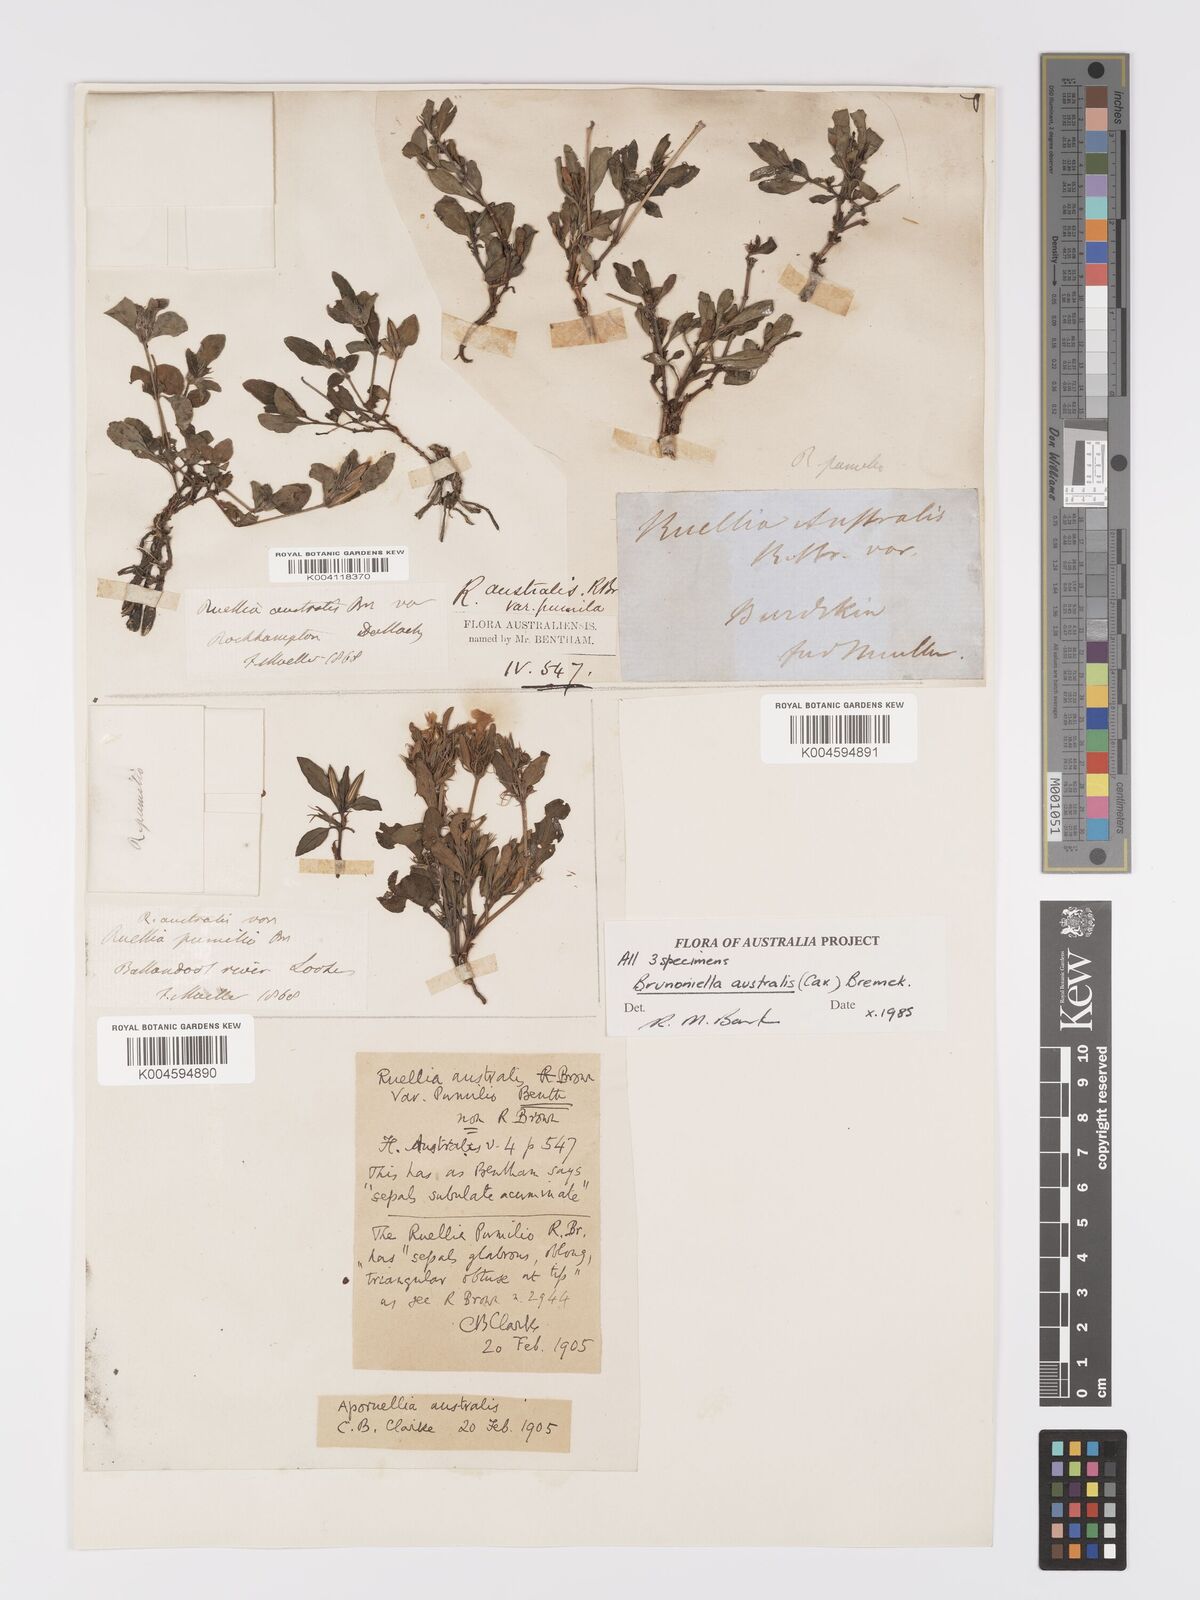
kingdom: Plantae
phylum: Tracheophyta
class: Magnoliopsida
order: Lamiales
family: Acanthaceae
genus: Brunoniella
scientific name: Brunoniella
